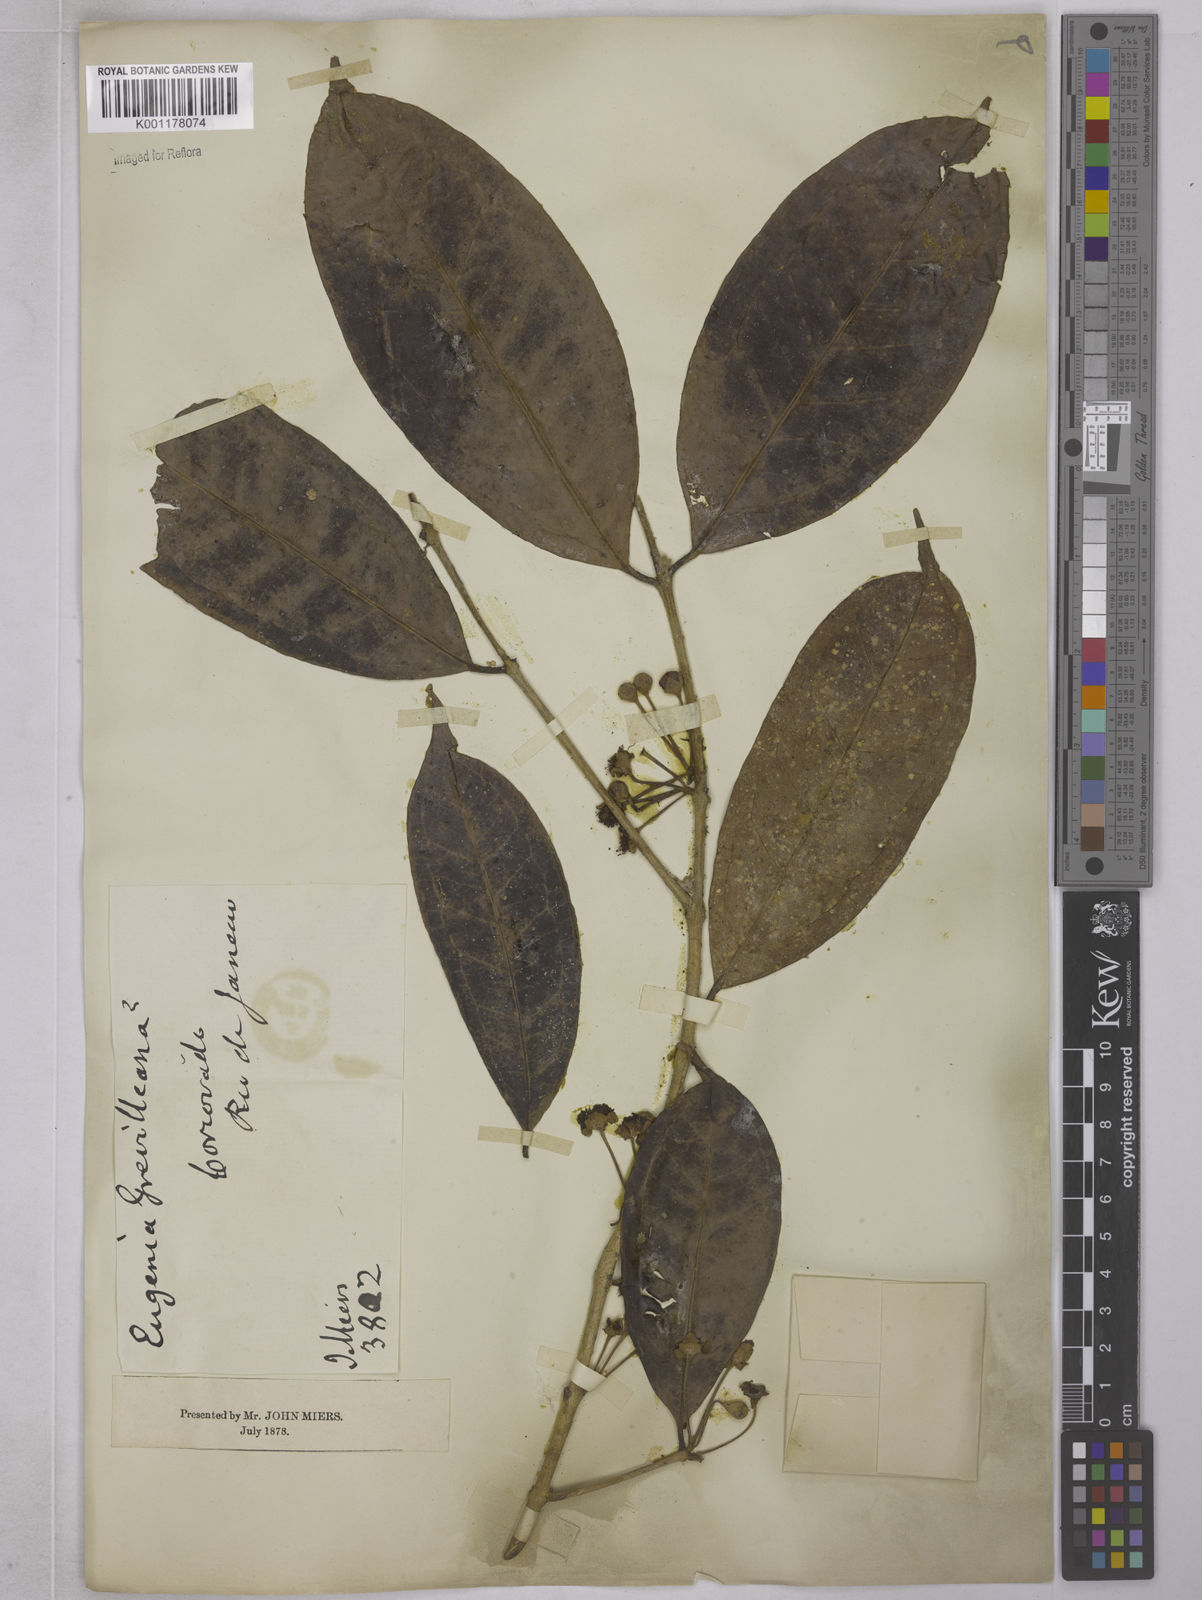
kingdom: Plantae
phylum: Tracheophyta
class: Magnoliopsida
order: Myrtales
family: Myrtaceae
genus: Eugenia
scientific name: Eugenia brevistyla
